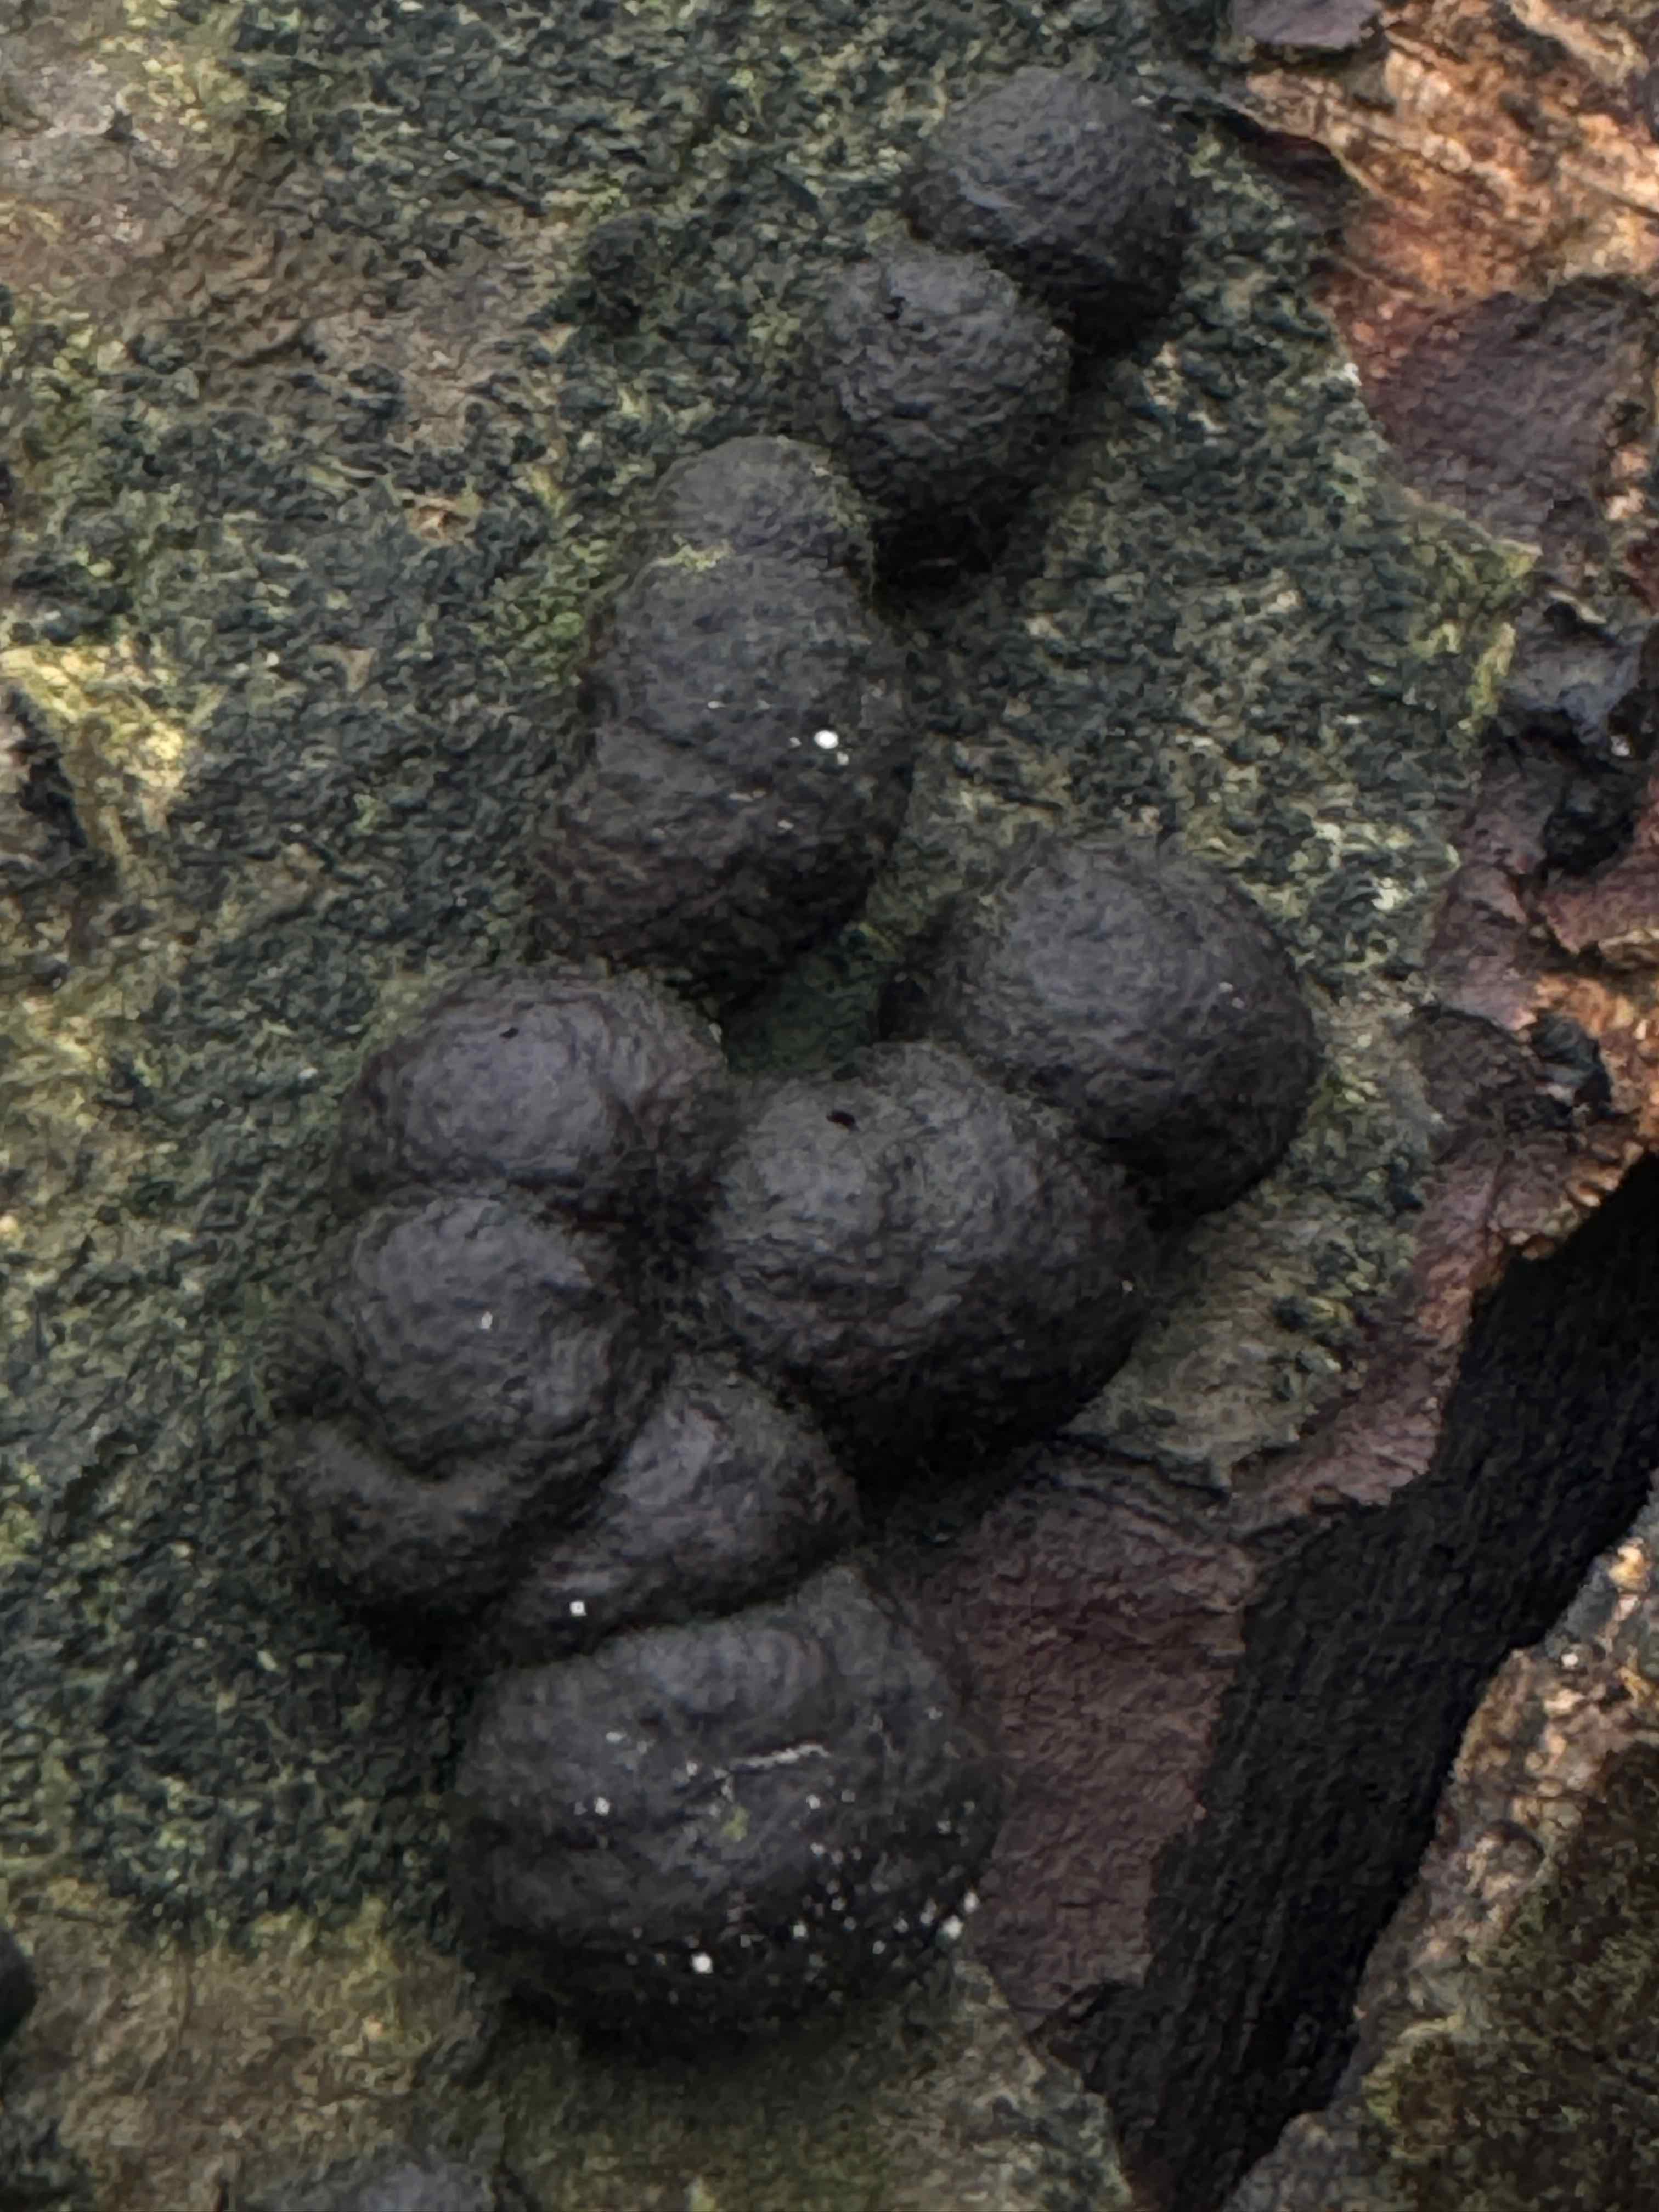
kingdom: Fungi
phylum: Ascomycota
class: Sordariomycetes
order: Xylariales
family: Hypoxylaceae
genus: Hypoxylon
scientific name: Hypoxylon fragiforme
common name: kuljordbær
